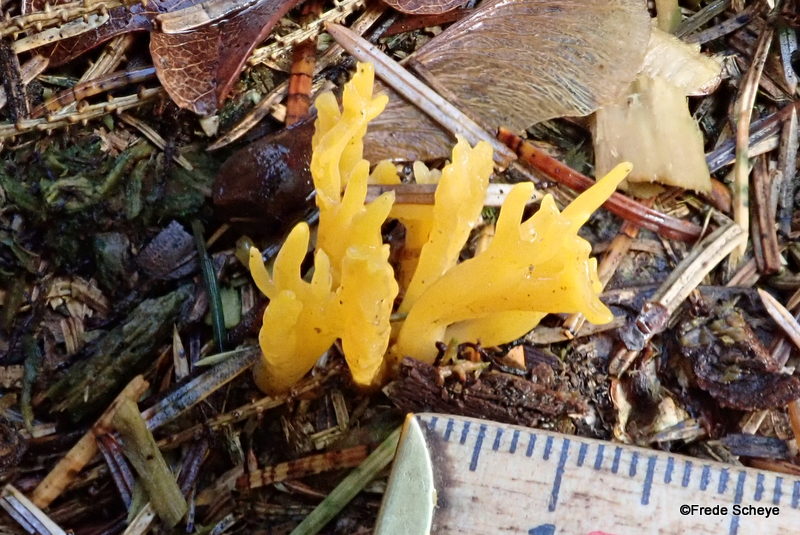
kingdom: Fungi
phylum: Basidiomycota
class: Dacrymycetes
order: Dacrymycetales
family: Dacrymycetaceae
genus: Calocera
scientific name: Calocera viscosa
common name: almindelig guldgaffel
